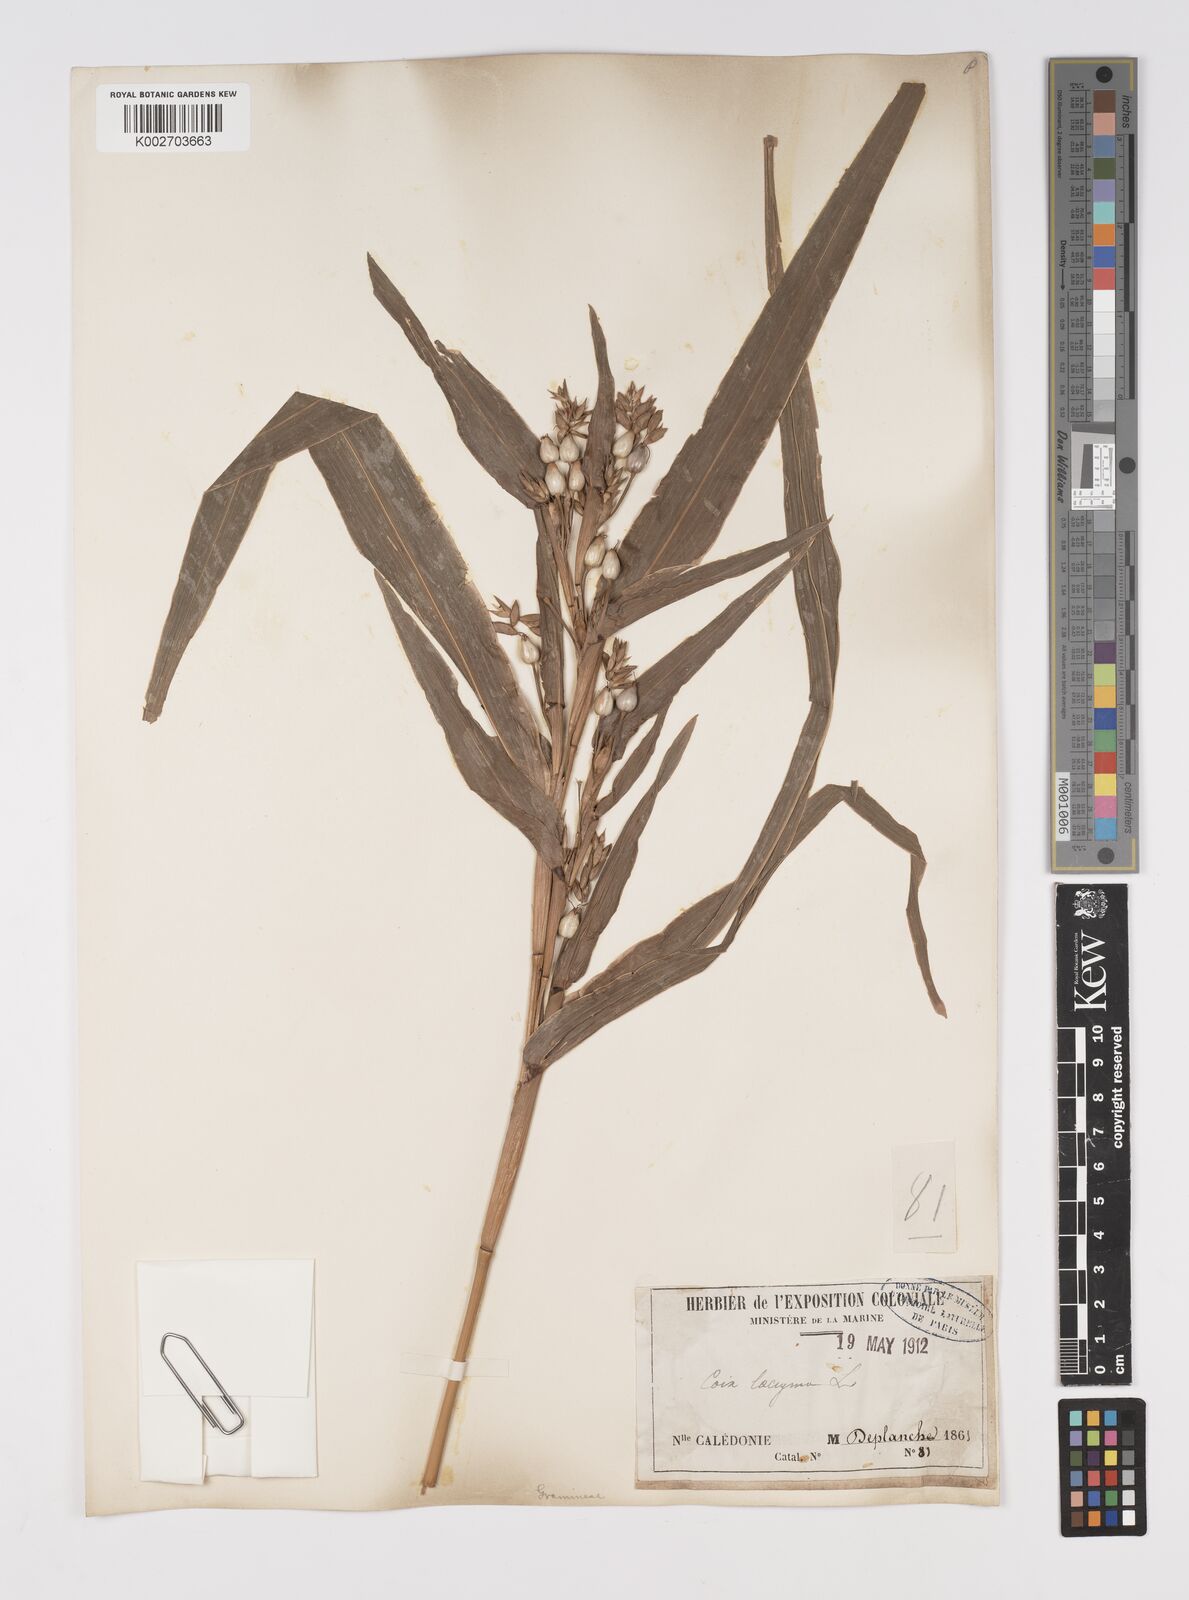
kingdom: Plantae
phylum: Tracheophyta
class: Liliopsida
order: Poales
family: Poaceae
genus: Coix
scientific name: Coix lacryma-jobi
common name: Job's tears
